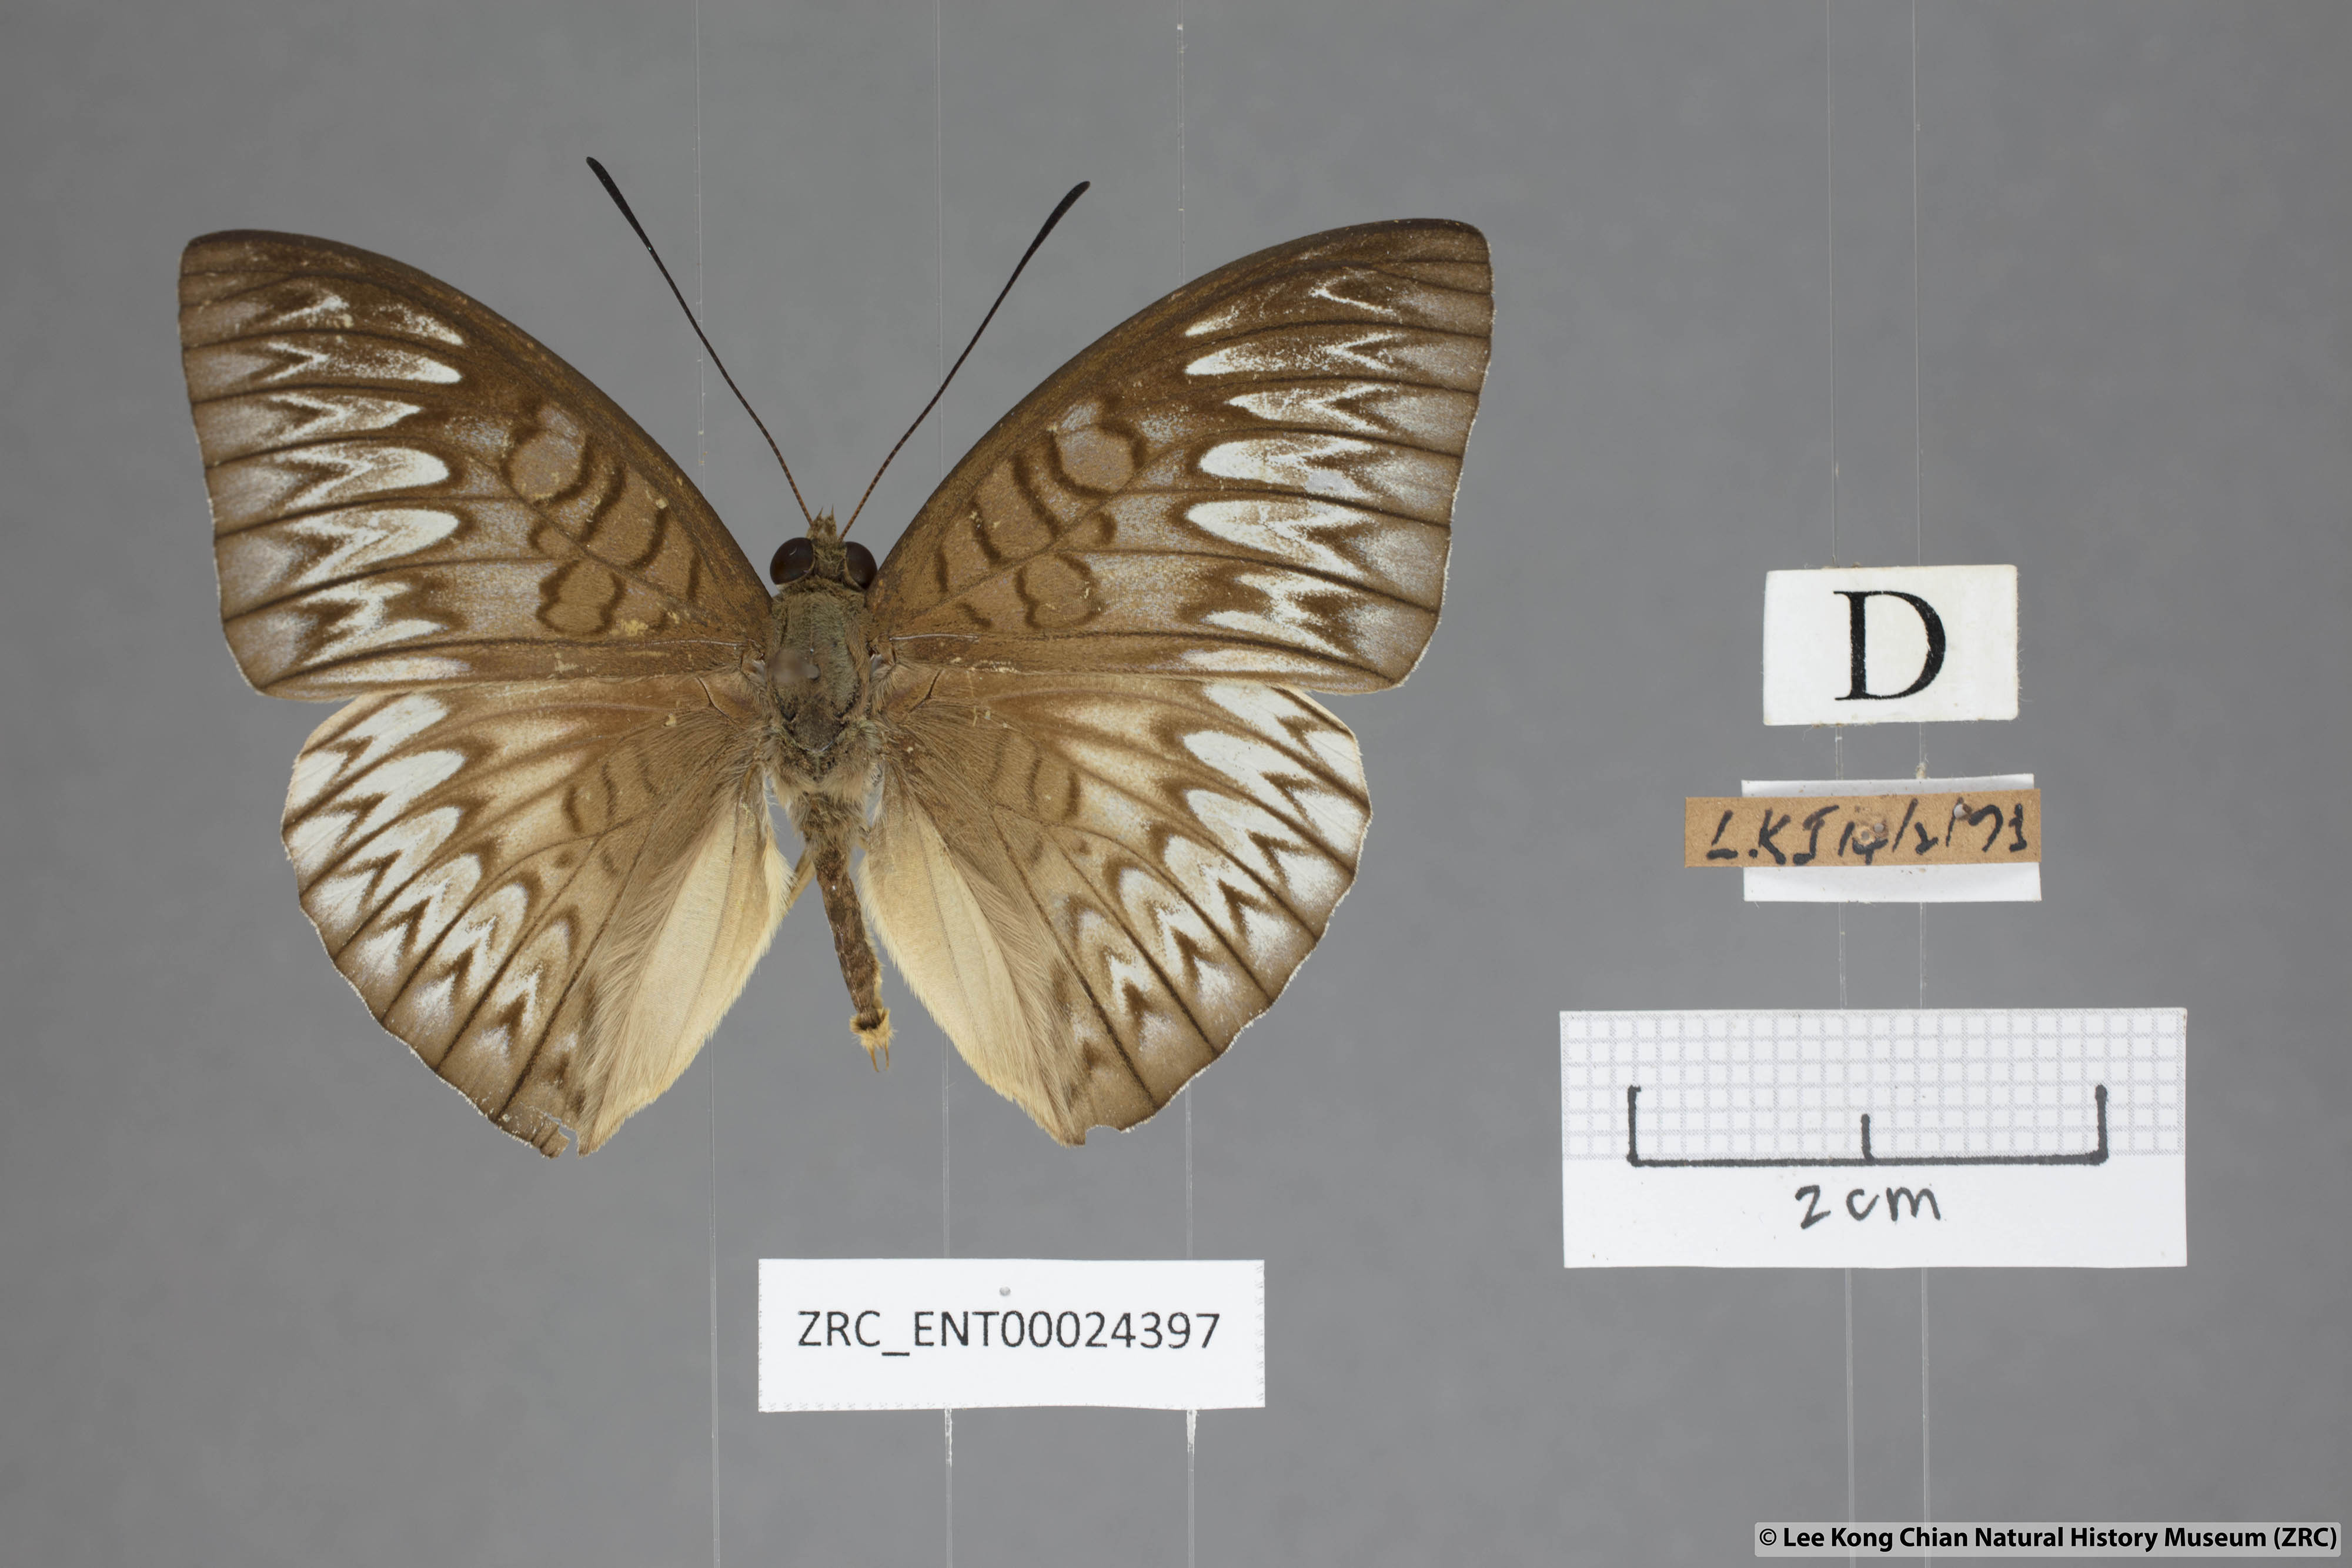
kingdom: Animalia
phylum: Arthropoda
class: Insecta
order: Lepidoptera
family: Nymphalidae
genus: Tanaecia
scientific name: Tanaecia munda
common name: Peninsular viscount
